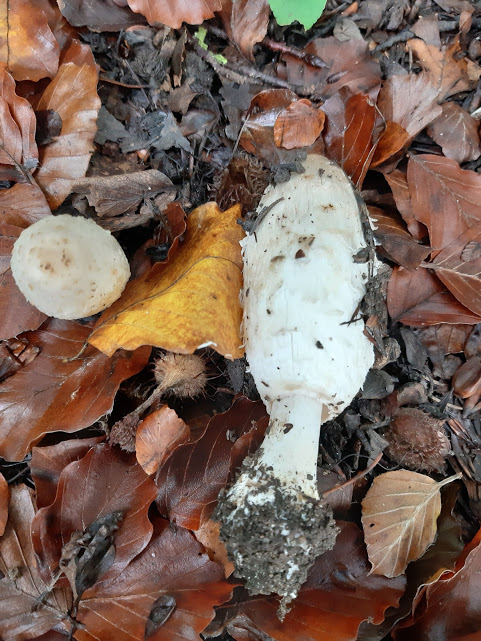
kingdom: Fungi
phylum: Basidiomycota
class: Agaricomycetes
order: Agaricales
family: Agaricaceae
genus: Coprinus
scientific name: Coprinus comatus
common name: stor parykhat
